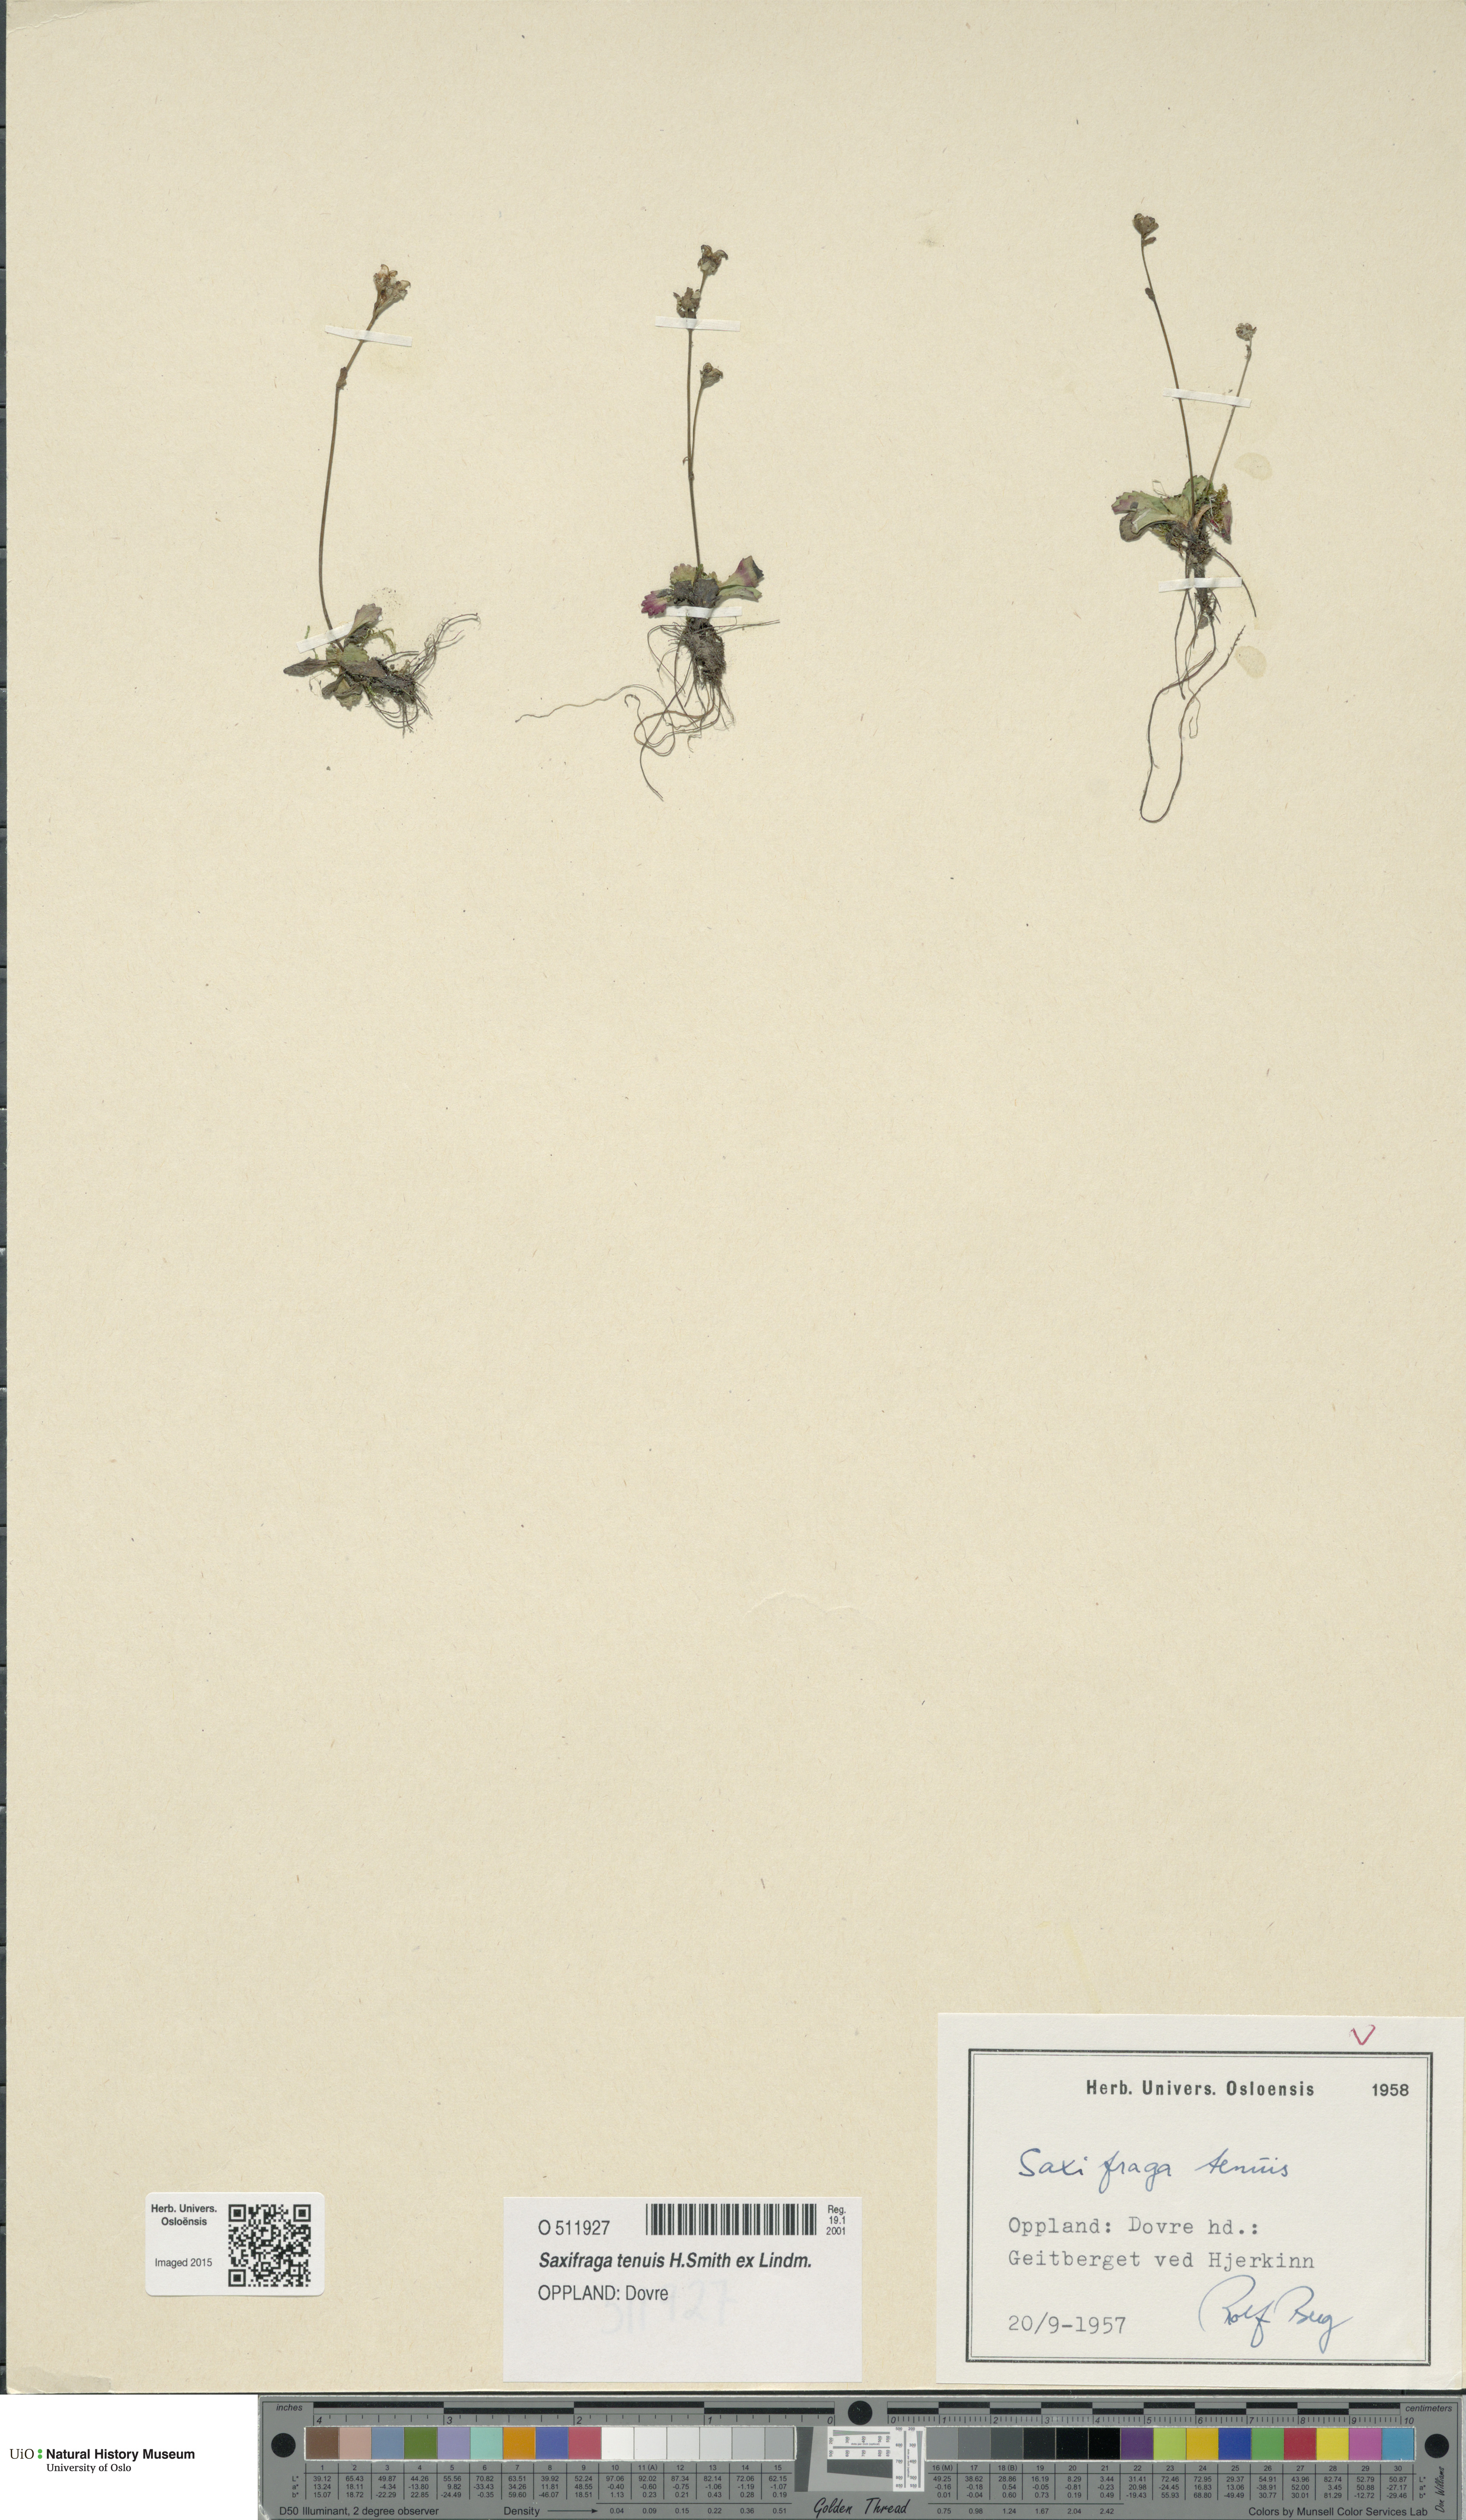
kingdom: Plantae
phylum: Tracheophyta
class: Magnoliopsida
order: Saxifragales
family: Saxifragaceae
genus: Micranthes
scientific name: Micranthes tenuis
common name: Ottertail pass saxifrage
